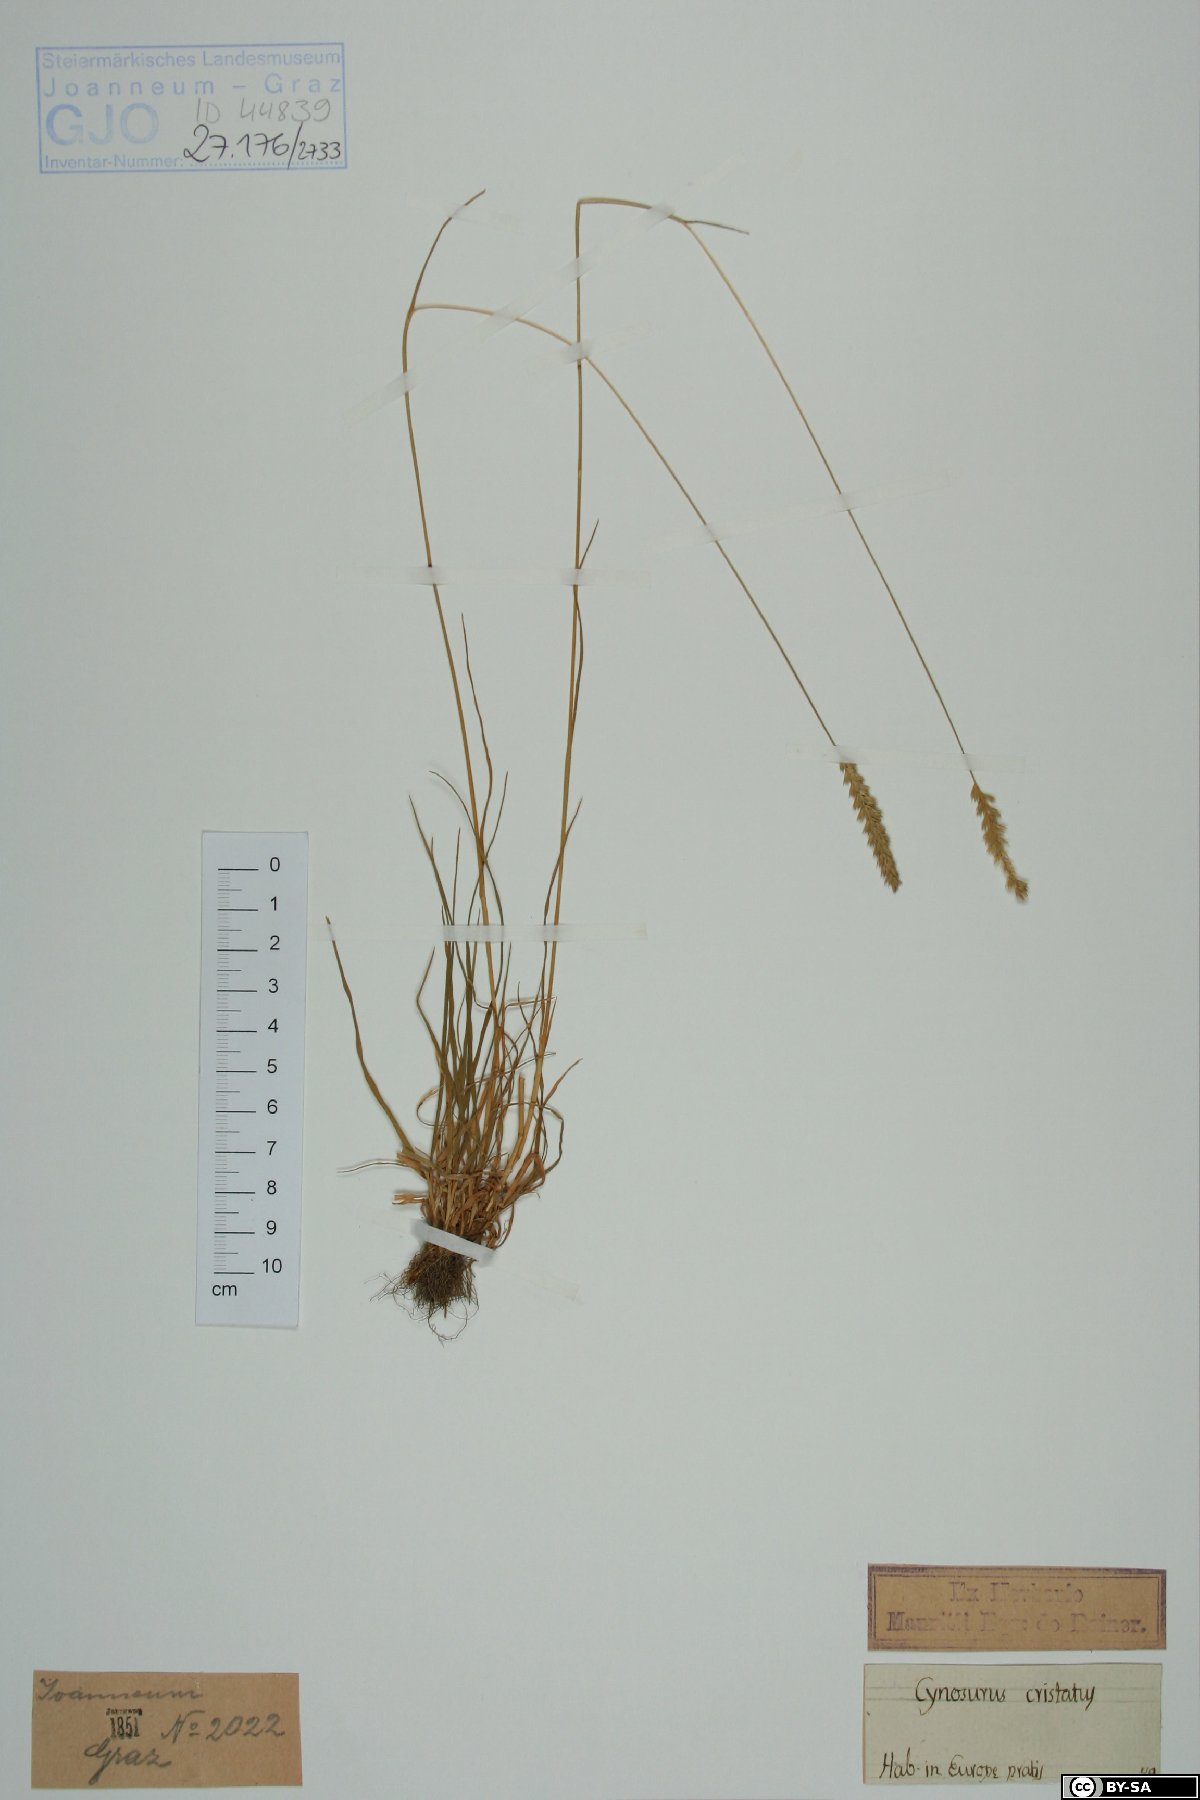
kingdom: Plantae
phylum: Tracheophyta
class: Liliopsida
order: Poales
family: Poaceae
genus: Cynosurus
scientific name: Cynosurus cristatus
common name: Crested dog's-tail
